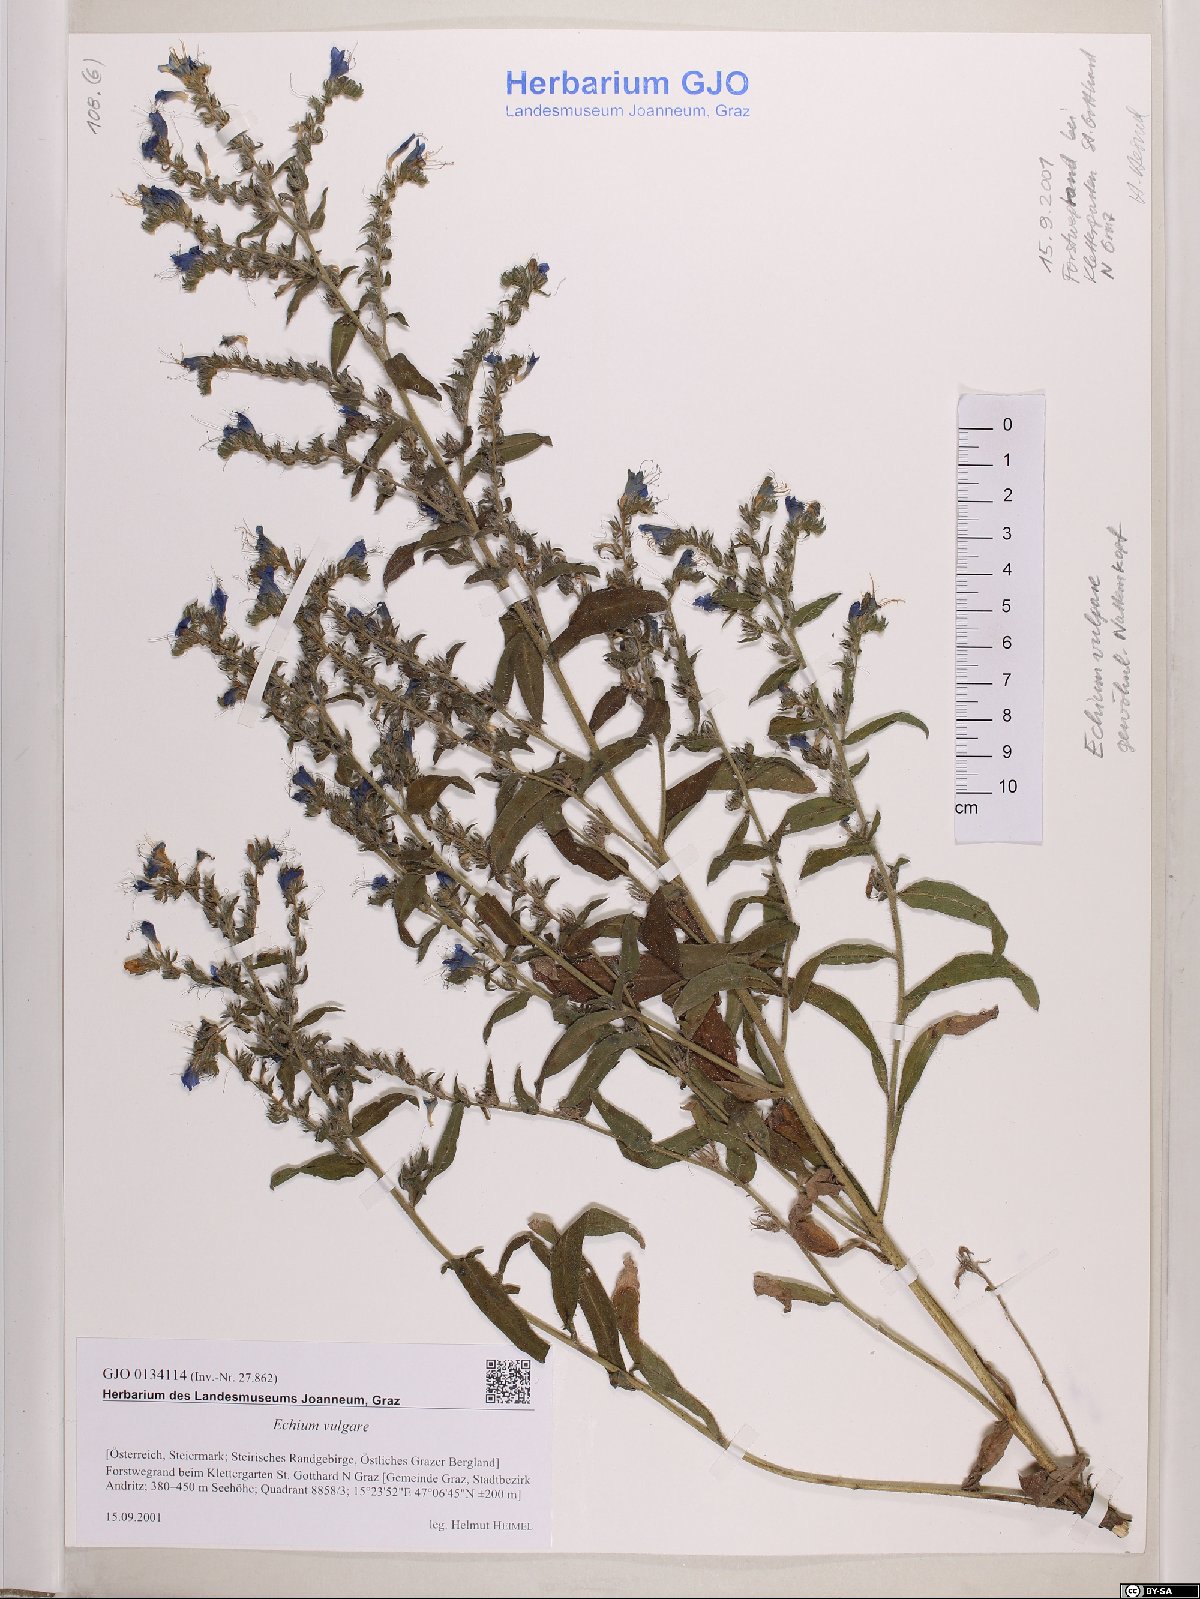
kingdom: Plantae
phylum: Tracheophyta
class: Magnoliopsida
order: Boraginales
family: Boraginaceae
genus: Echium
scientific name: Echium vulgare
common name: Common viper's bugloss
